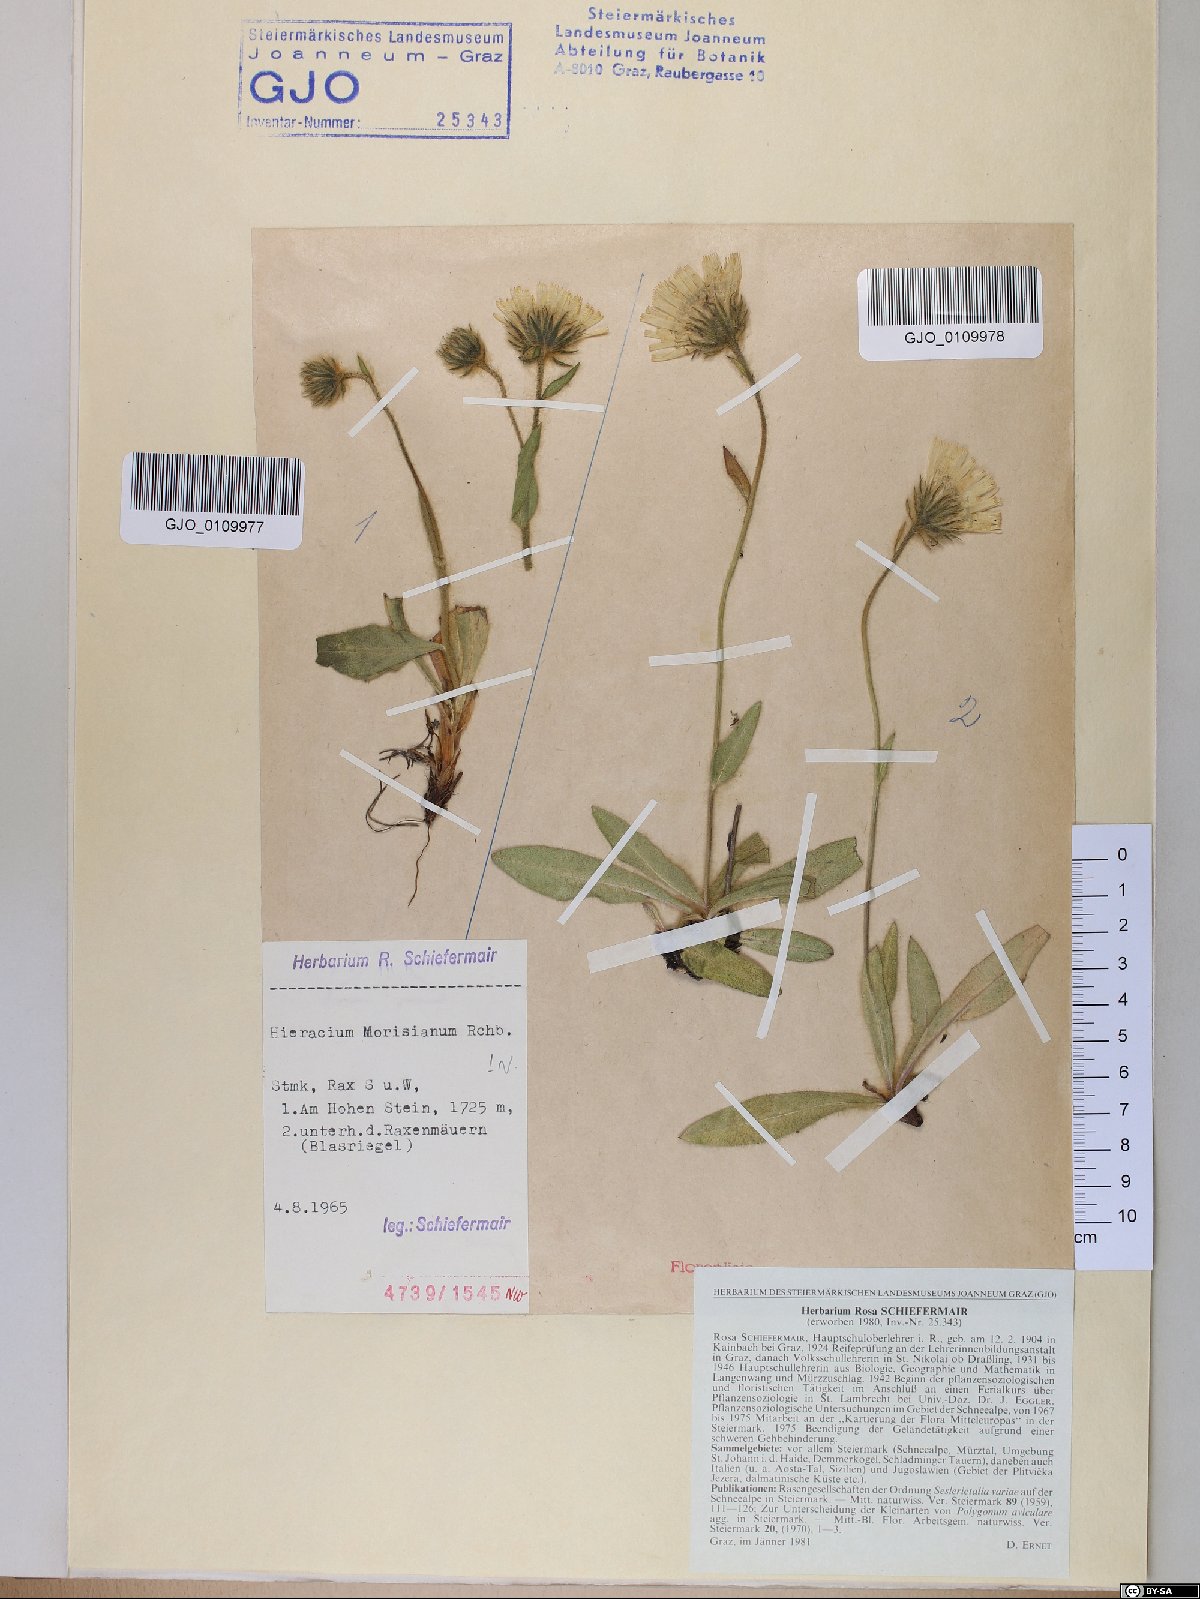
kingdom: Plantae
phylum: Tracheophyta
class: Magnoliopsida
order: Asterales
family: Asteraceae
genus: Hieracium
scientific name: Hieracium pilosum
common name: Fimbriate-pitted hawkweed
